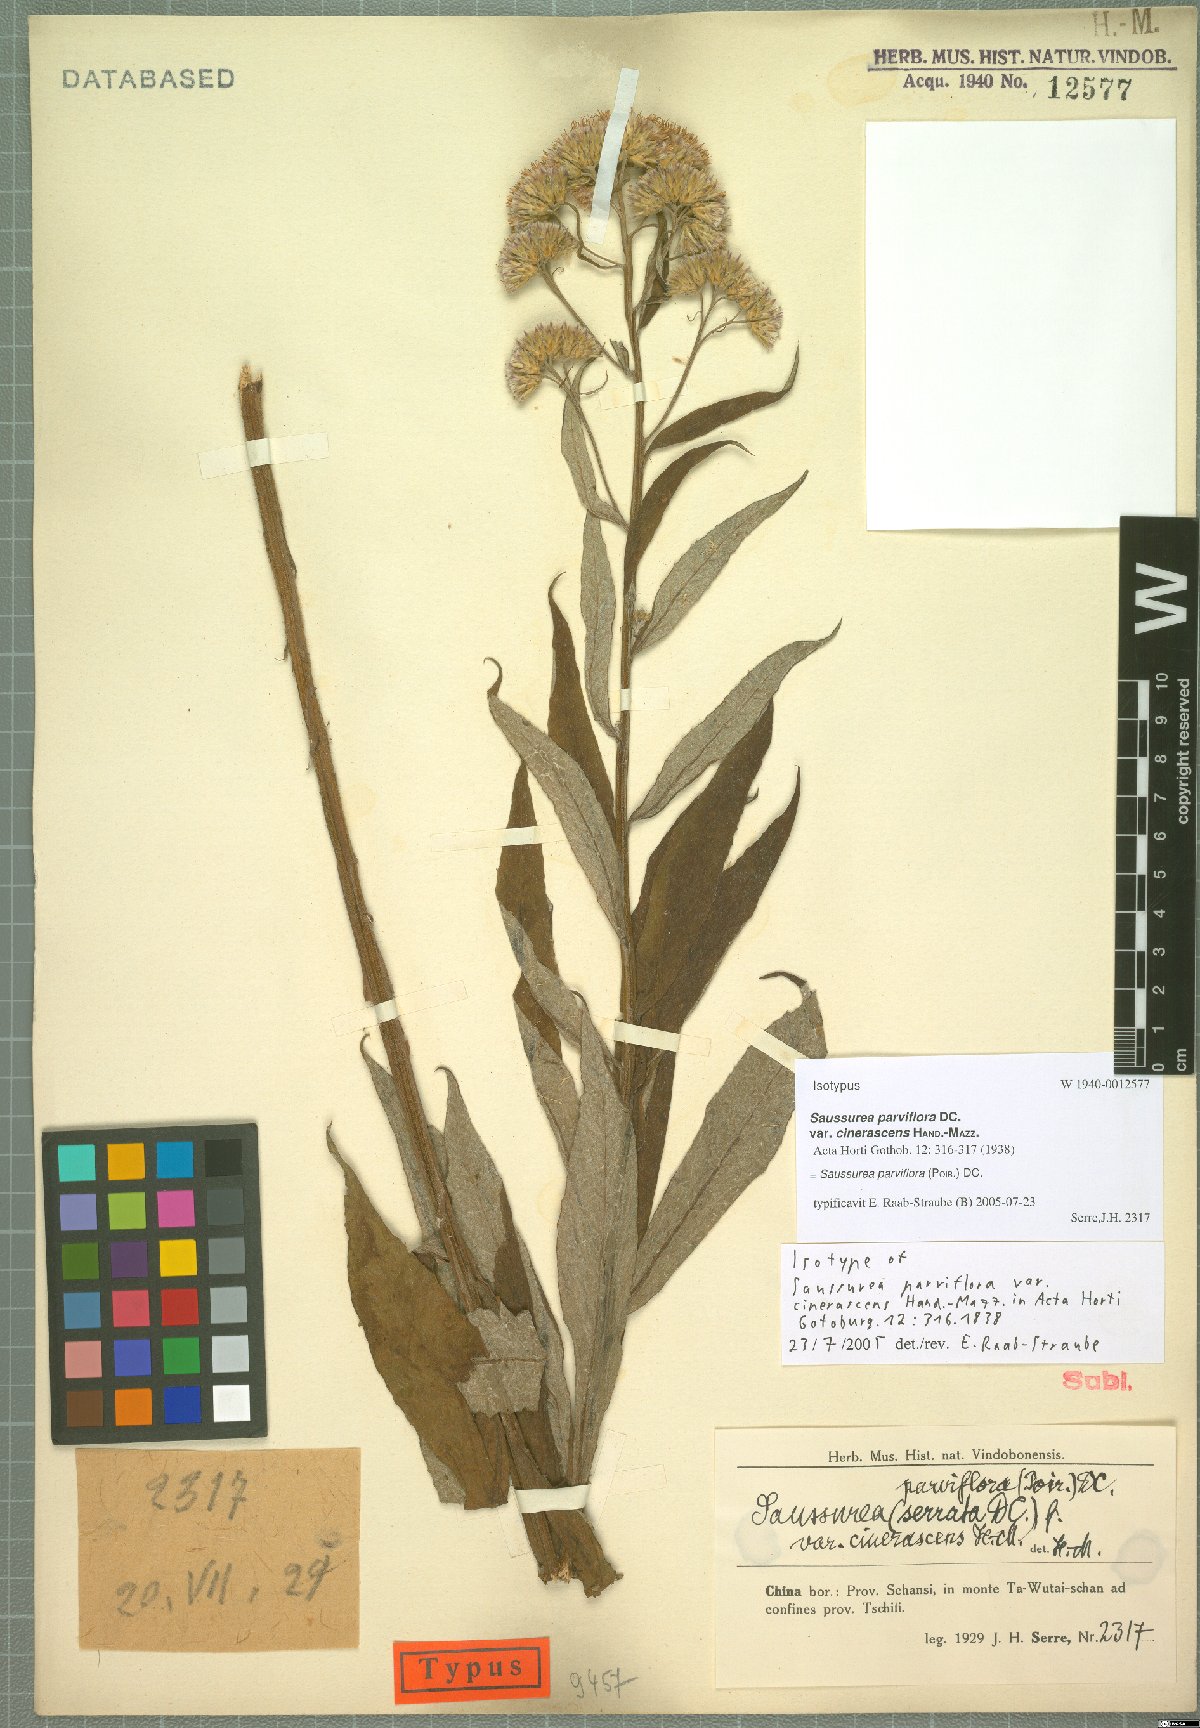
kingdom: Plantae
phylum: Tracheophyta
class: Magnoliopsida
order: Asterales
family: Asteraceae
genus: Saussurea
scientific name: Saussurea parviflora
